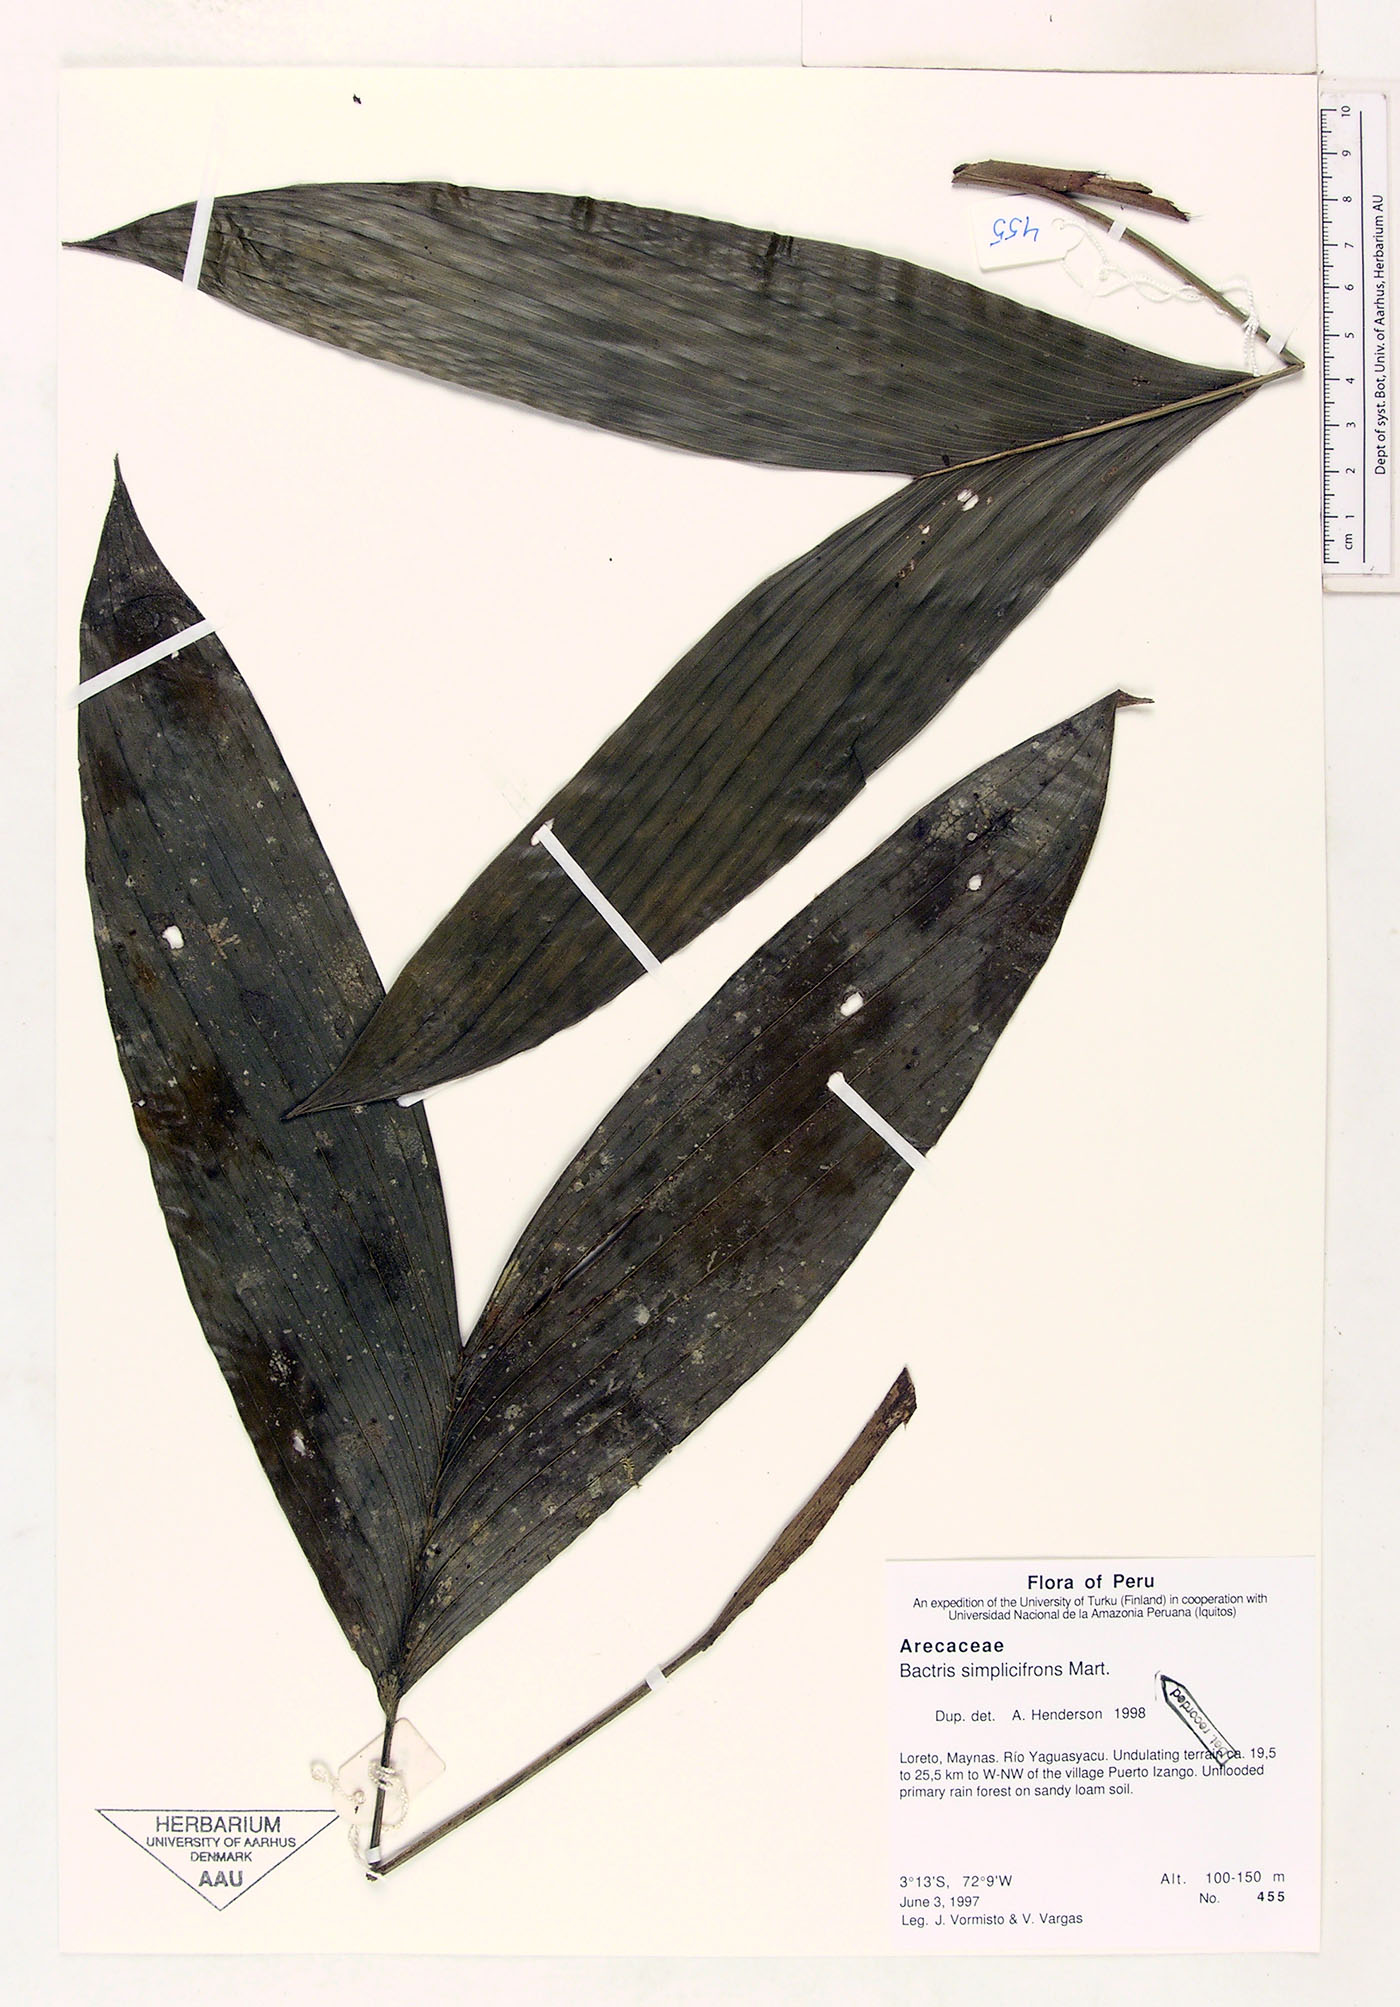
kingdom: Plantae
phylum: Tracheophyta
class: Liliopsida
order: Arecales
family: Arecaceae
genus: Bactris
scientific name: Bactris simplicifrons
